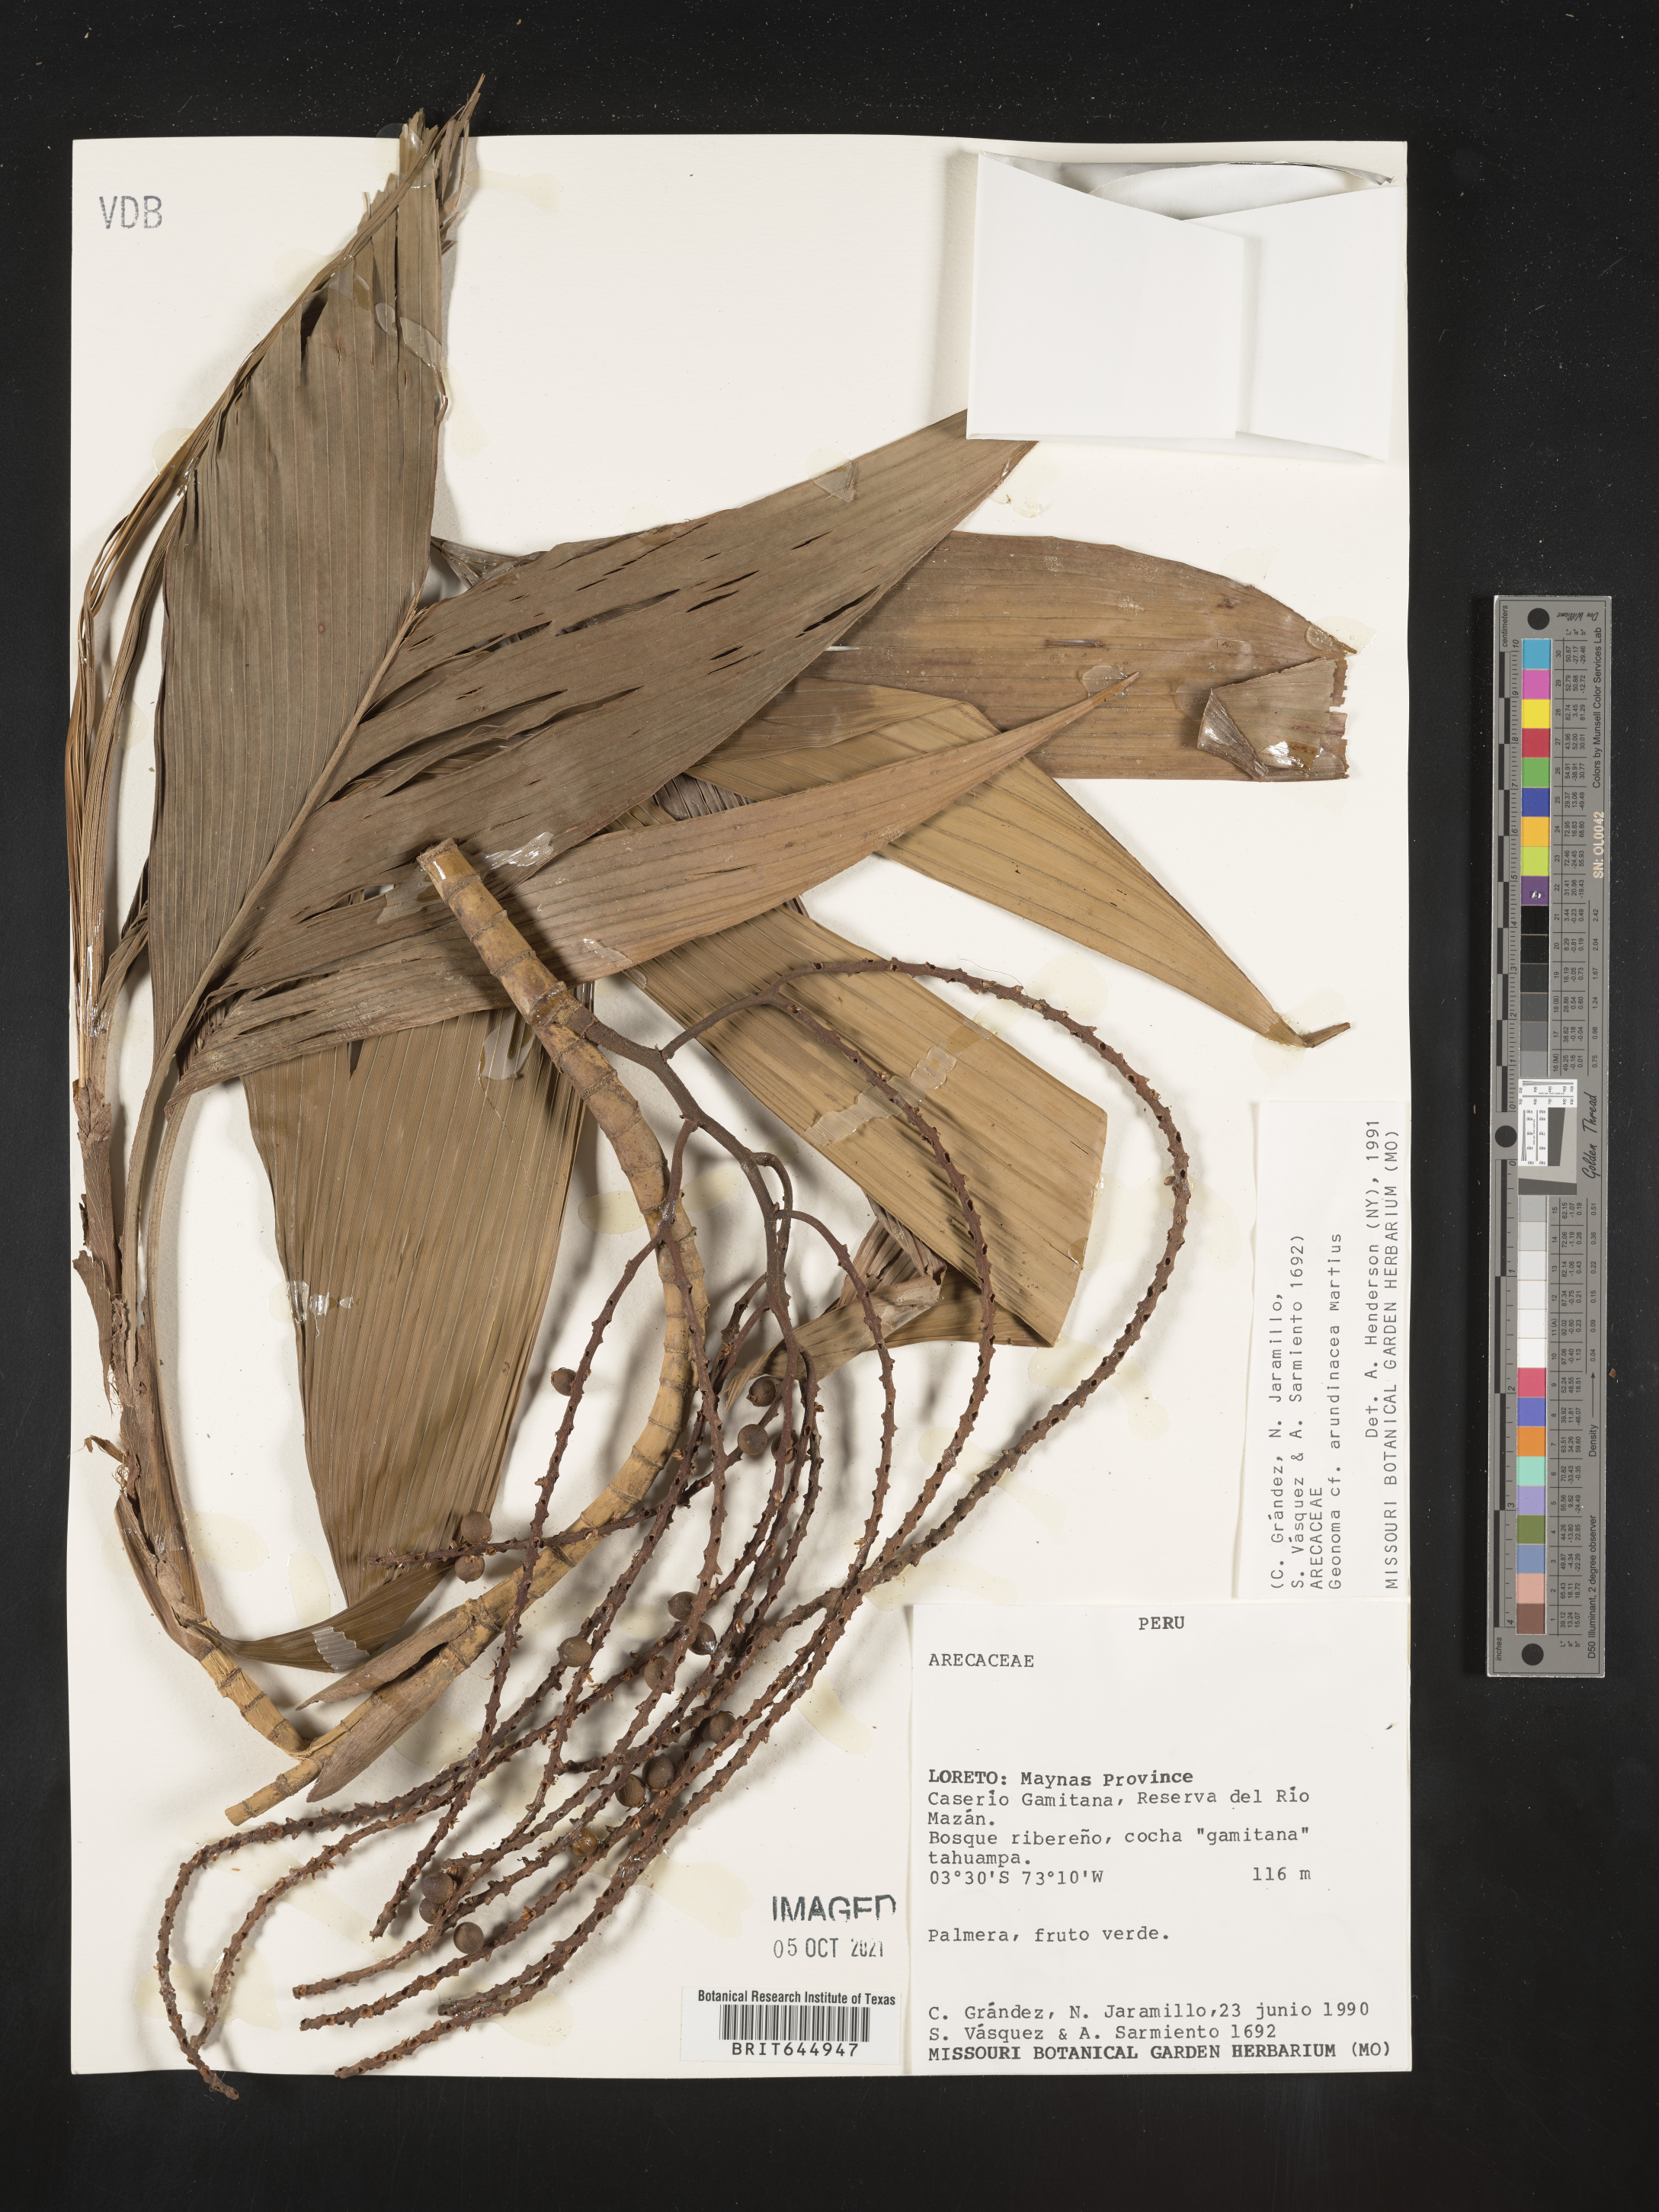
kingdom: Plantae
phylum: Tracheophyta
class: Liliopsida
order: Arecales
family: Arecaceae
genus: Geonoma
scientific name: Geonoma stricta
